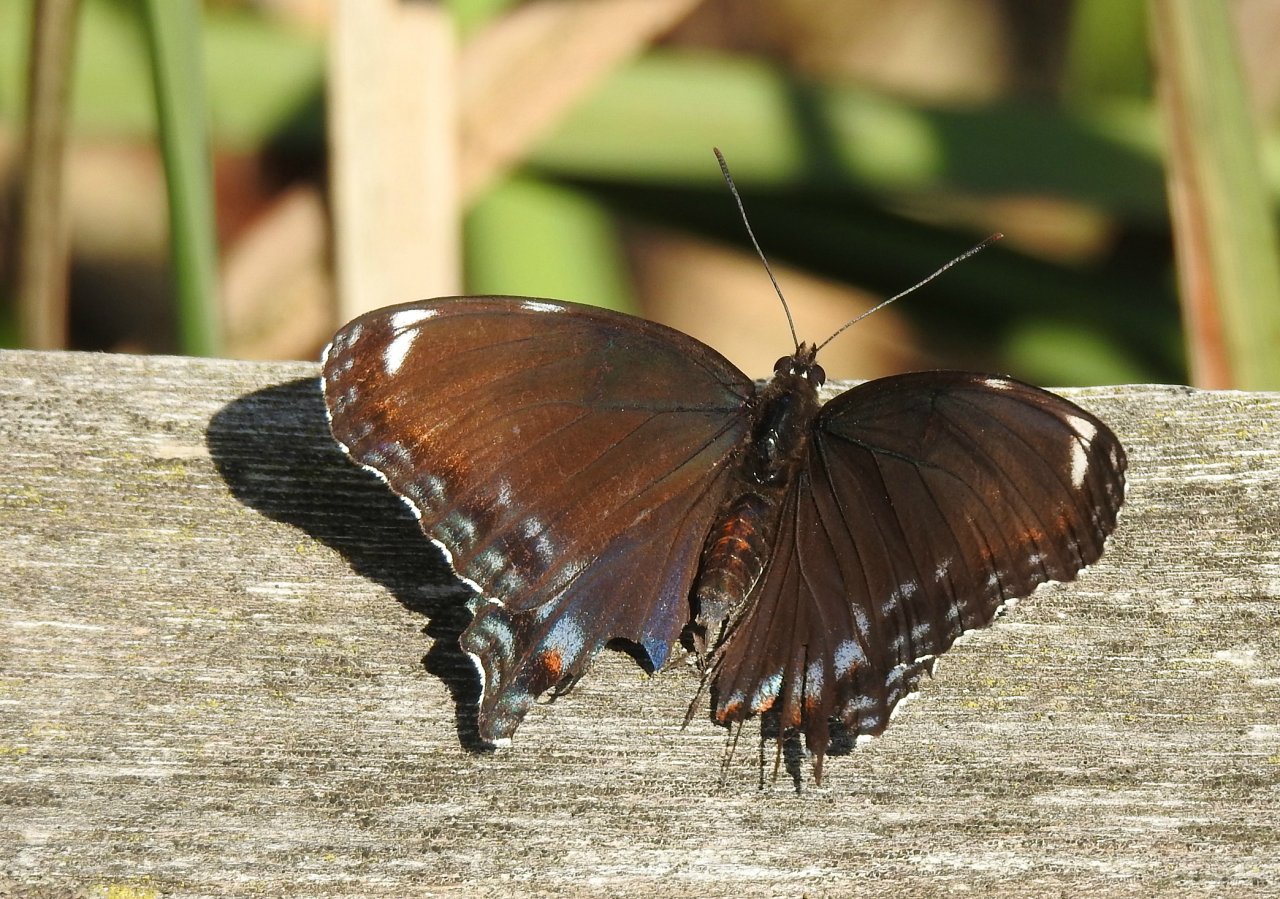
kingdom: Animalia
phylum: Arthropoda
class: Insecta
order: Lepidoptera
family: Nymphalidae
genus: Limenitis
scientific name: Limenitis astyanax
